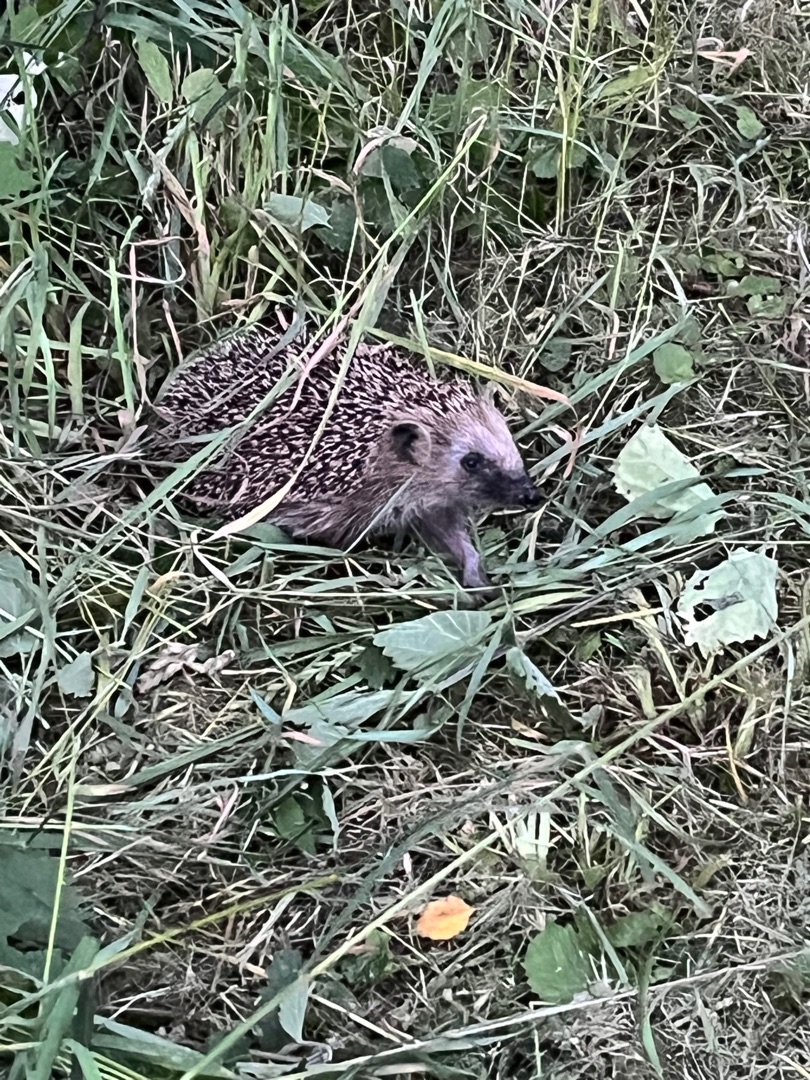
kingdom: Animalia
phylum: Chordata
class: Mammalia
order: Erinaceomorpha
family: Erinaceidae
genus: Erinaceus
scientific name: Erinaceus europaeus
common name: Pindsvin
